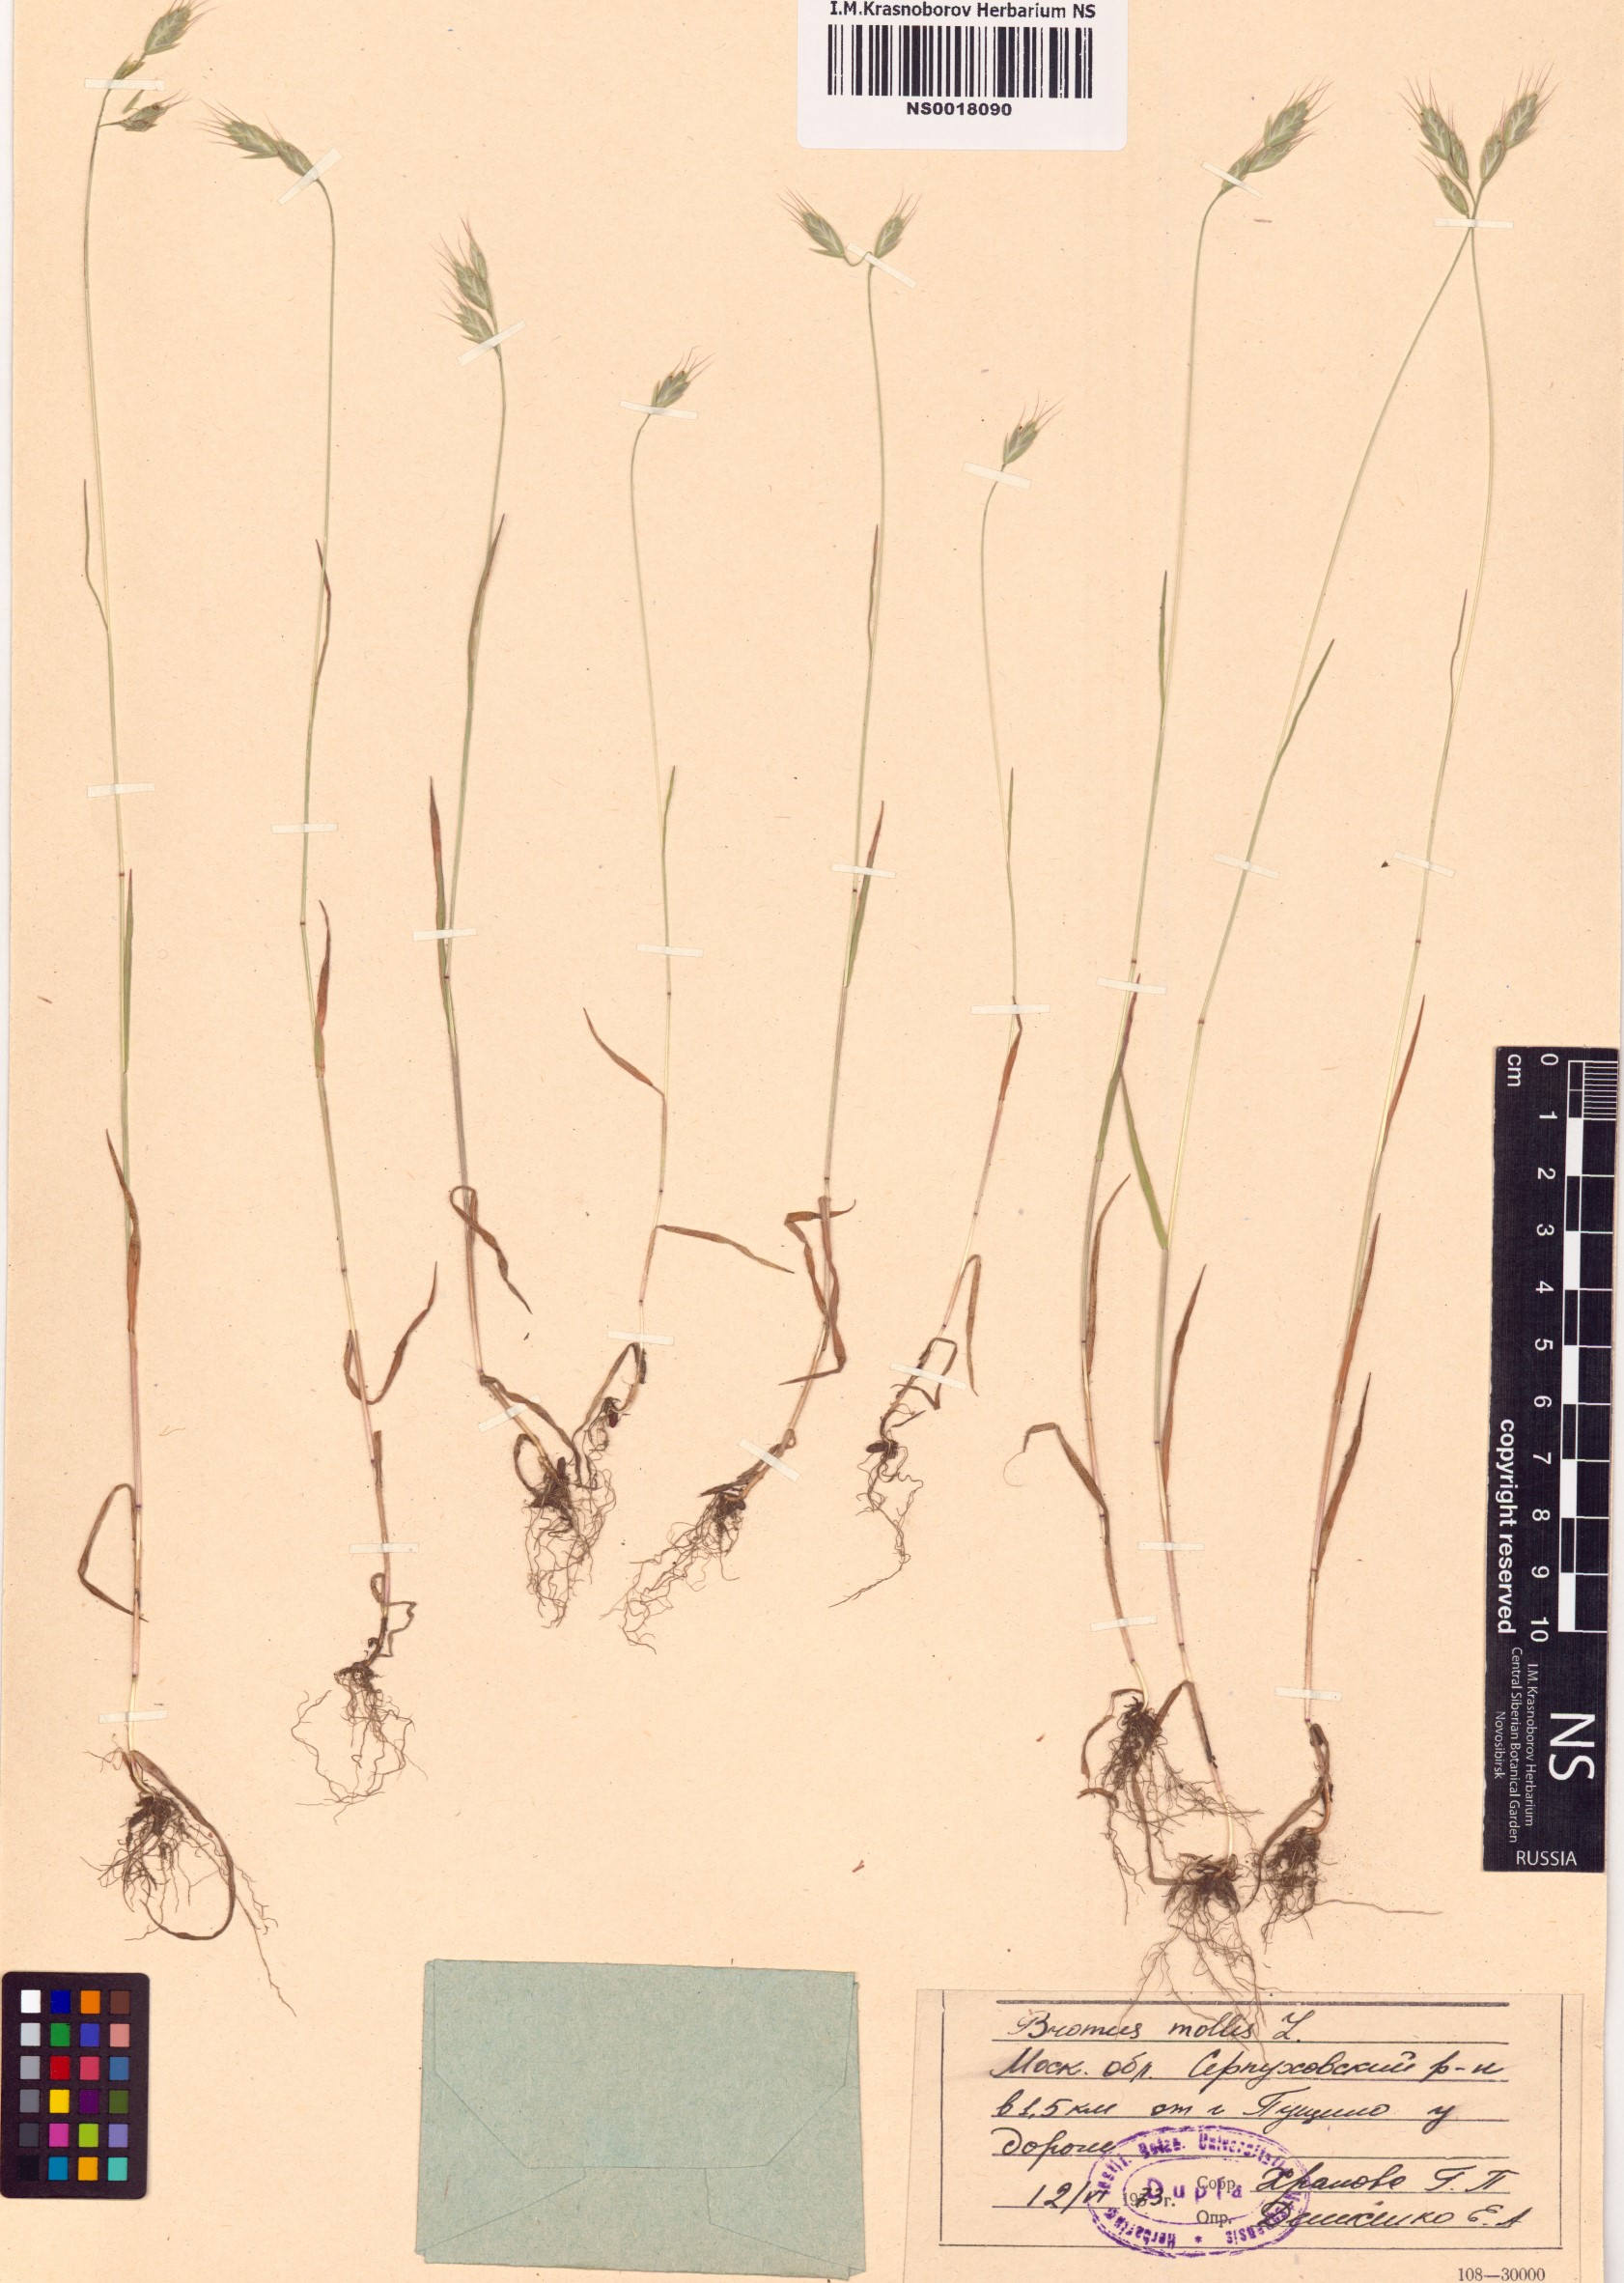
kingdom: Plantae
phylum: Tracheophyta
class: Liliopsida
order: Poales
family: Poaceae
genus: Bromus
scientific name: Bromus hordeaceus
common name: Soft brome
